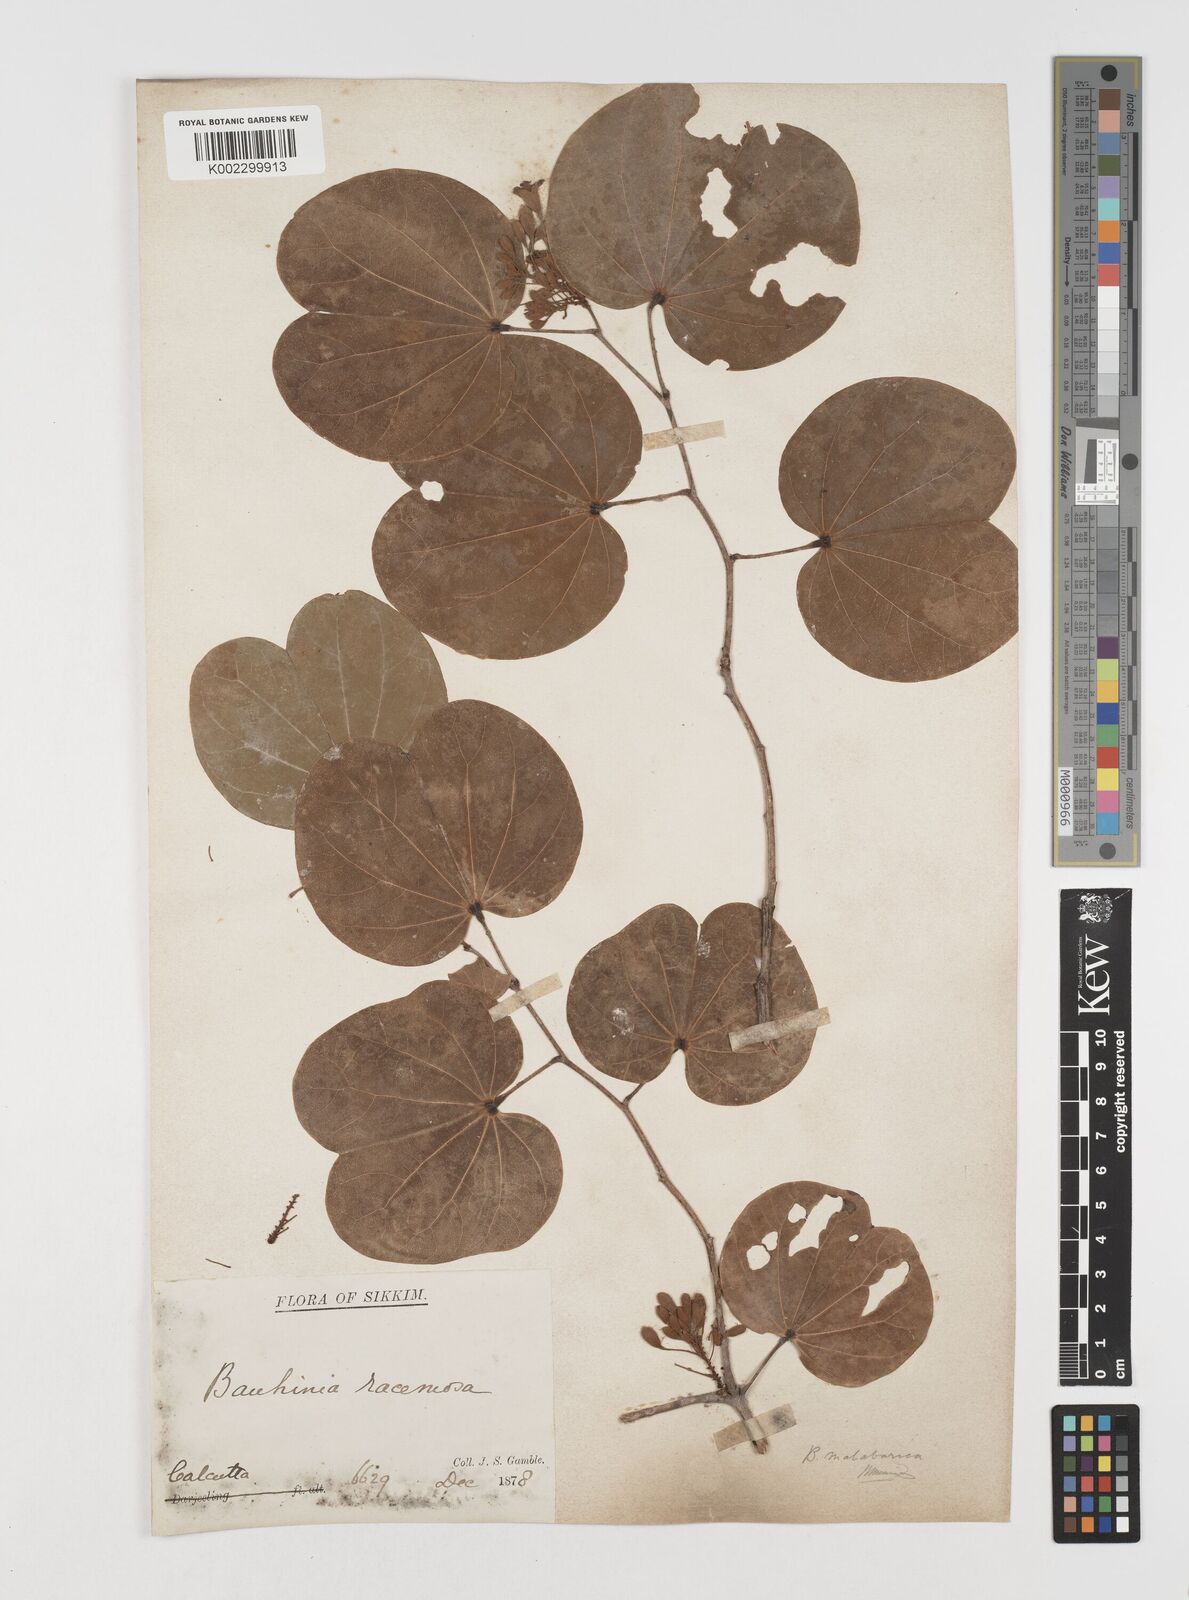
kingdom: Plantae
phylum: Tracheophyta
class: Magnoliopsida
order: Fabales
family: Fabaceae
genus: Piliostigma
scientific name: Piliostigma malabaricum
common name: Malabar bauhinia
